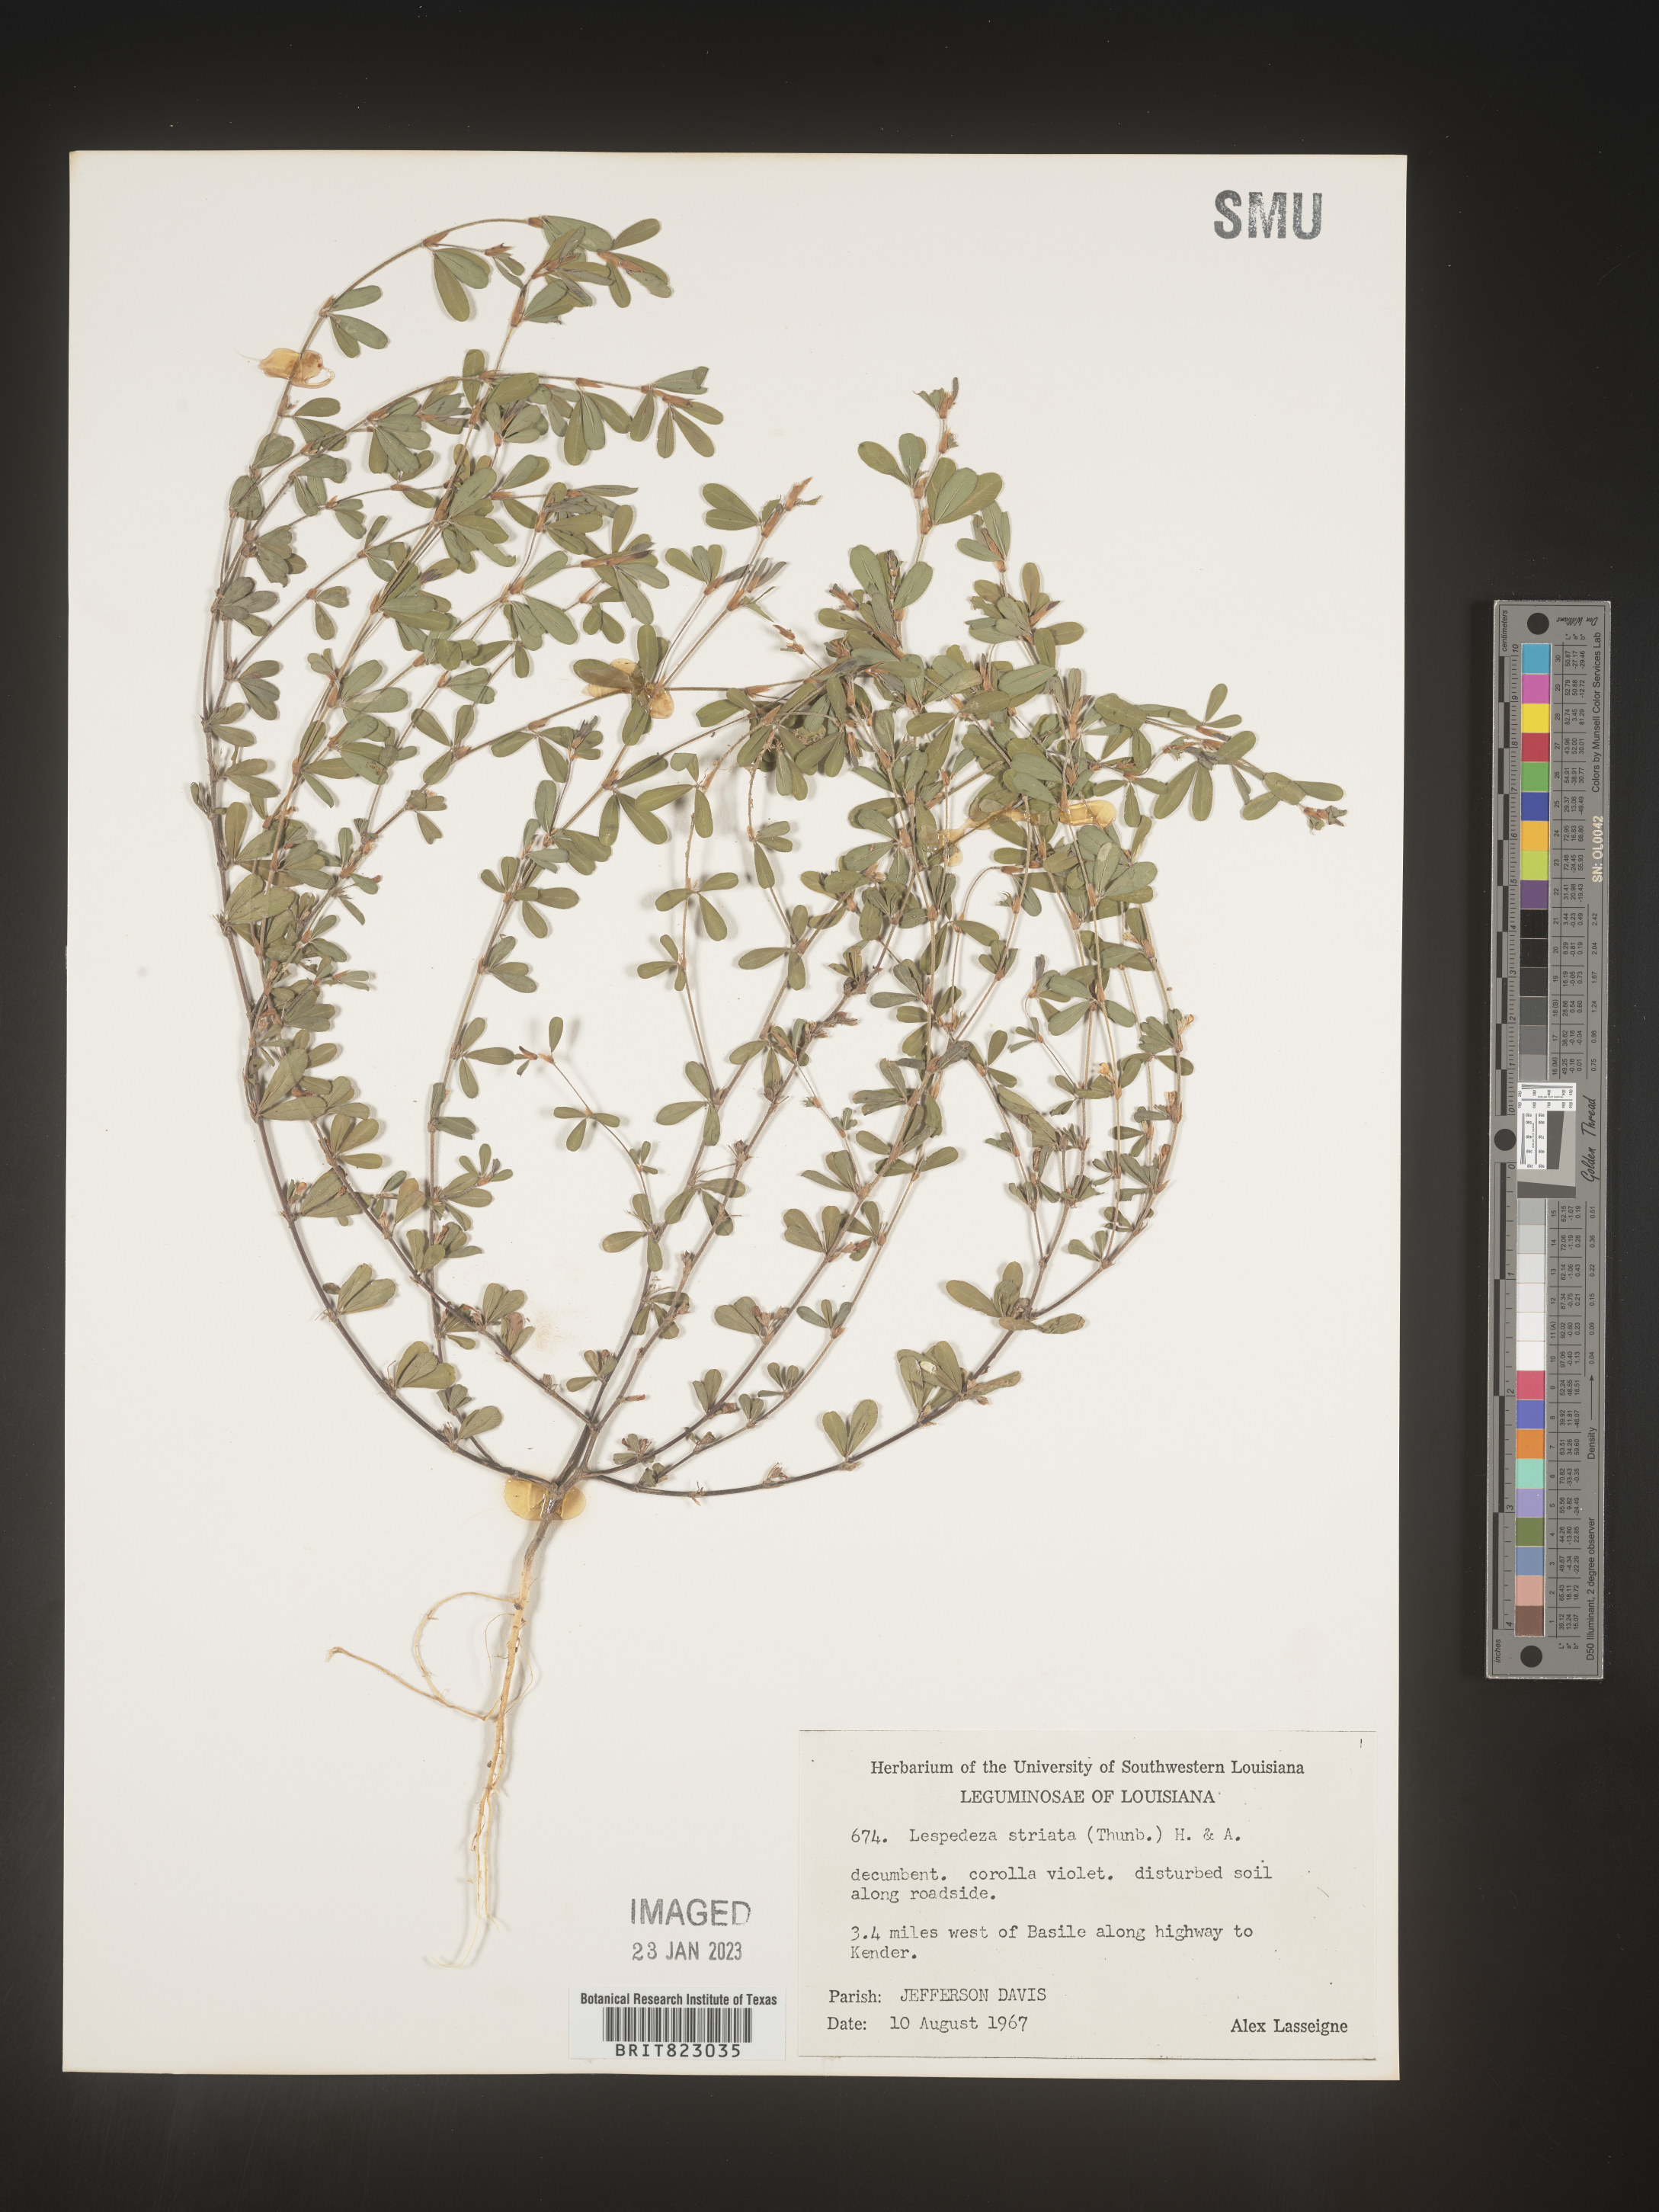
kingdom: Plantae
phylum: Tracheophyta
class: Magnoliopsida
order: Fabales
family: Fabaceae
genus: Kummerowia
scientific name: Kummerowia striata
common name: Japanese clover
